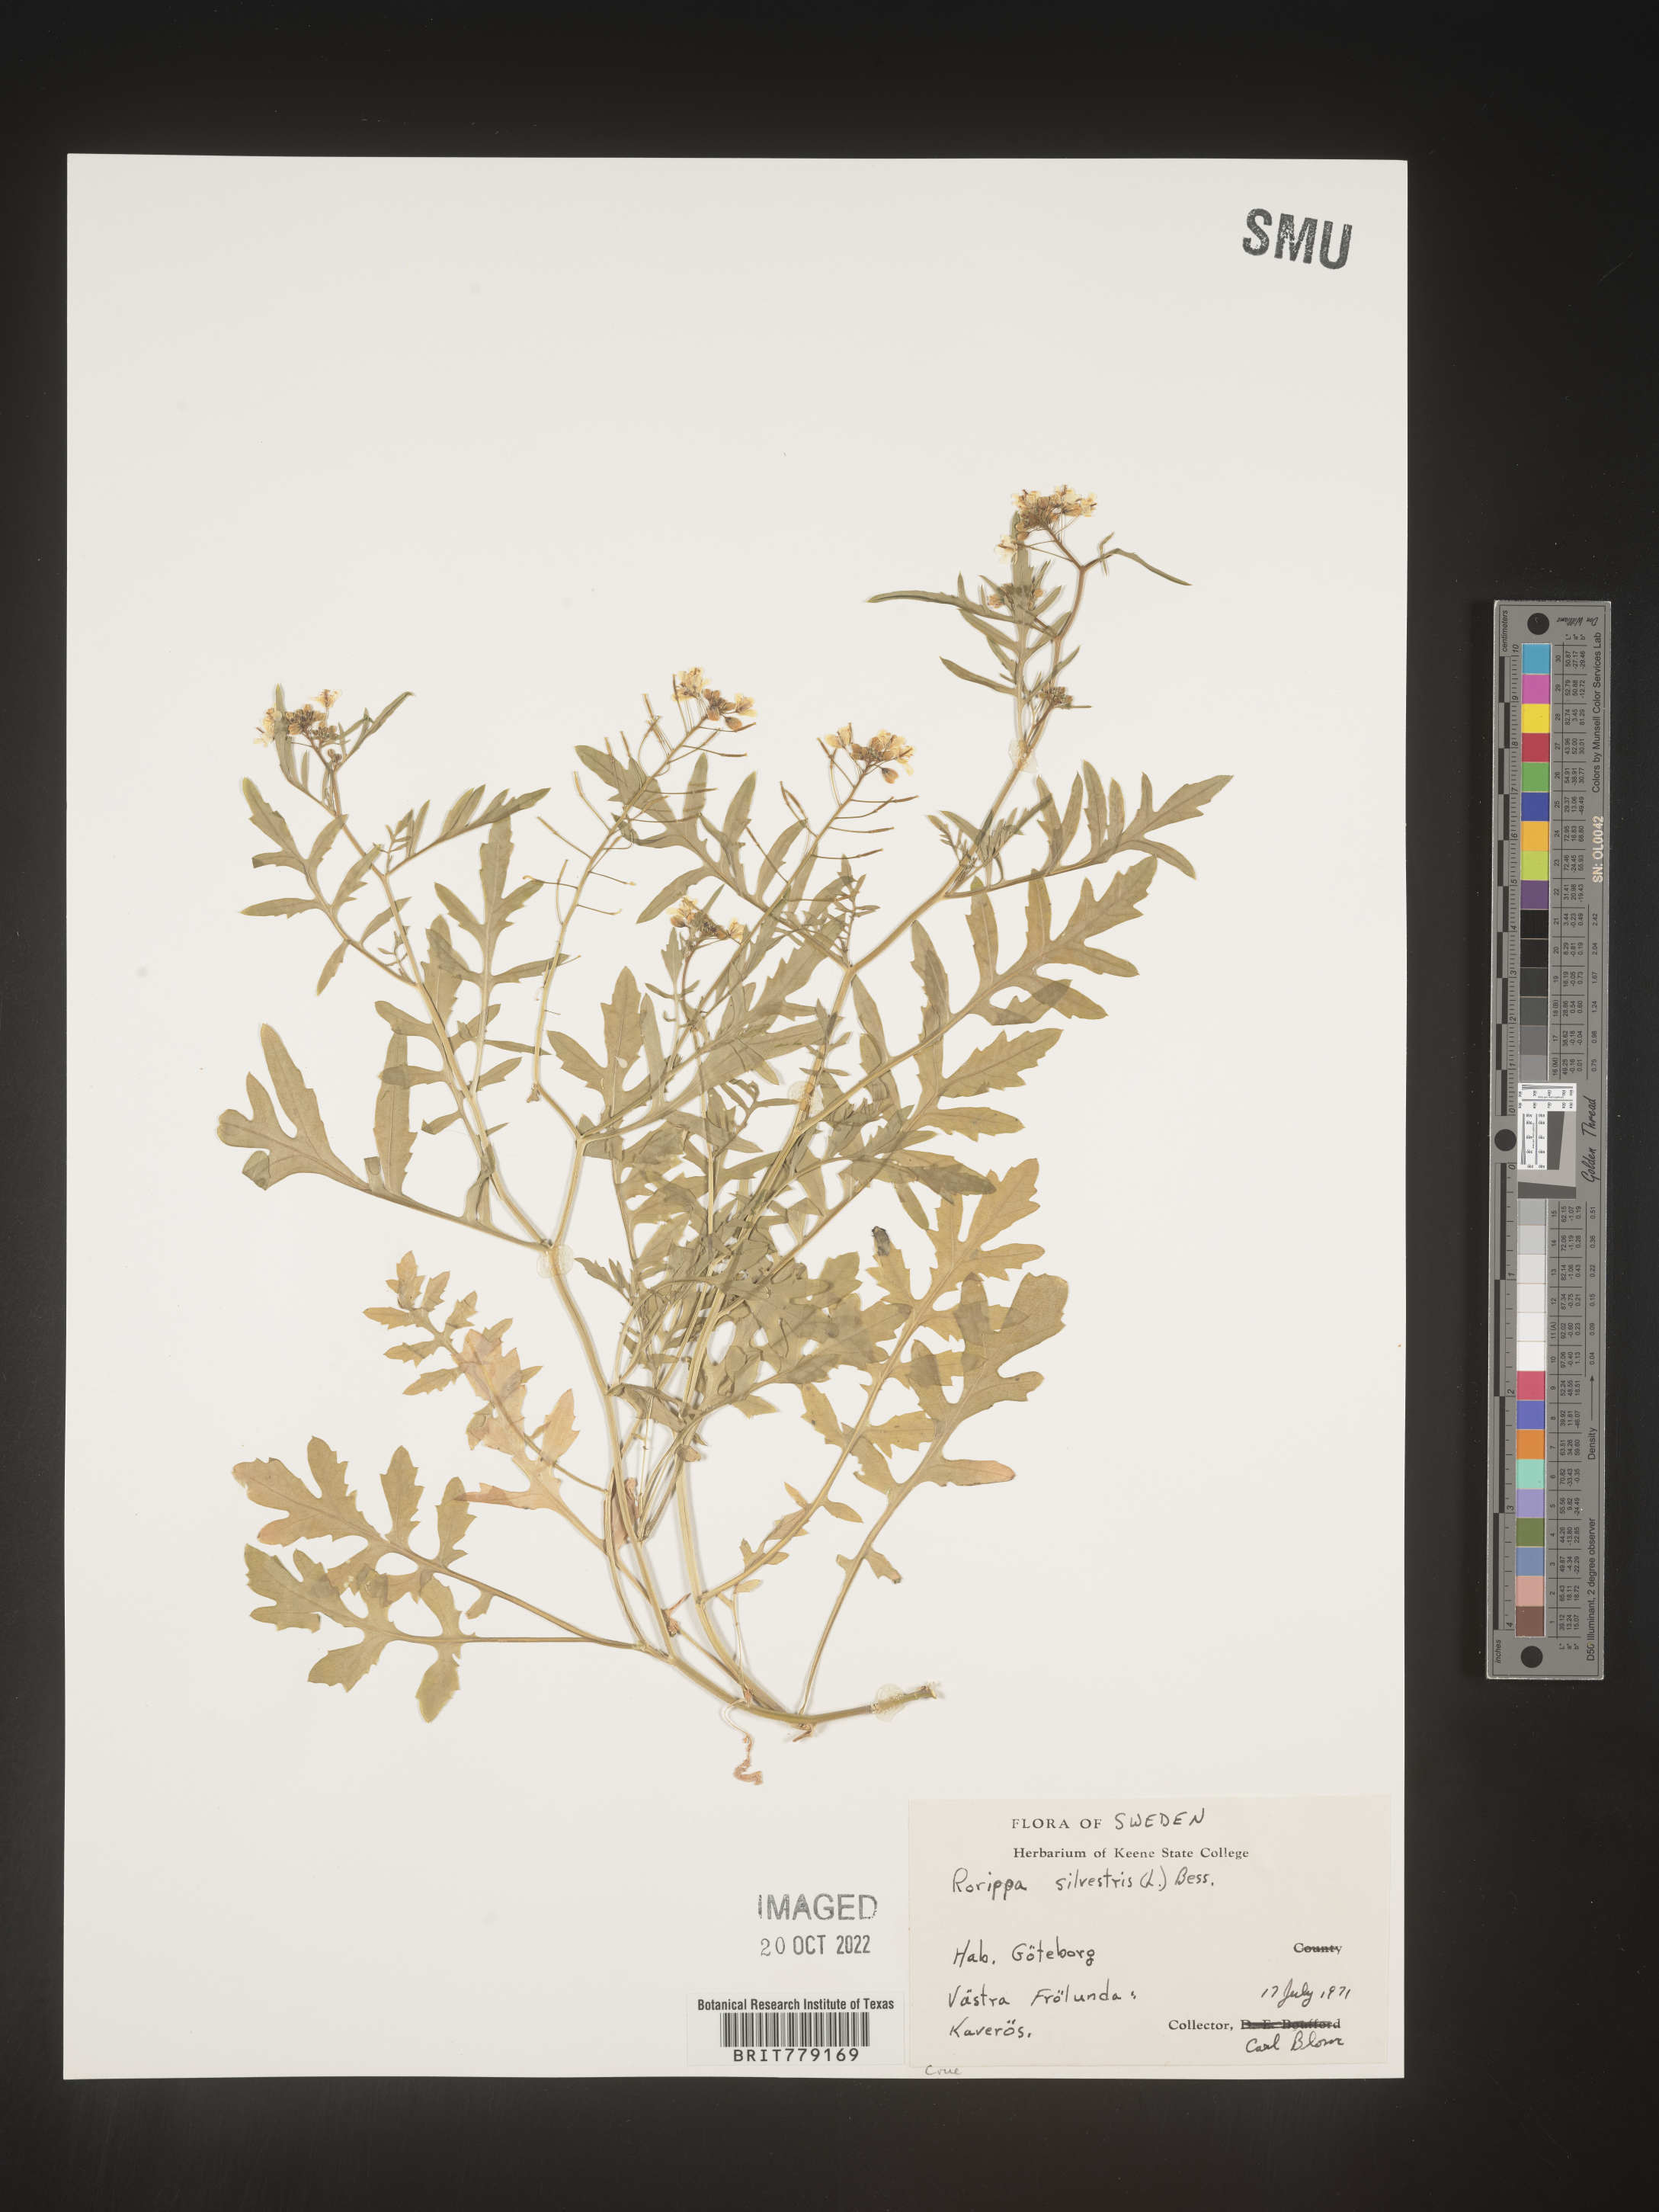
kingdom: Plantae
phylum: Tracheophyta
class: Magnoliopsida
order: Brassicales
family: Brassicaceae
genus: Rorippa
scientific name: Rorippa
